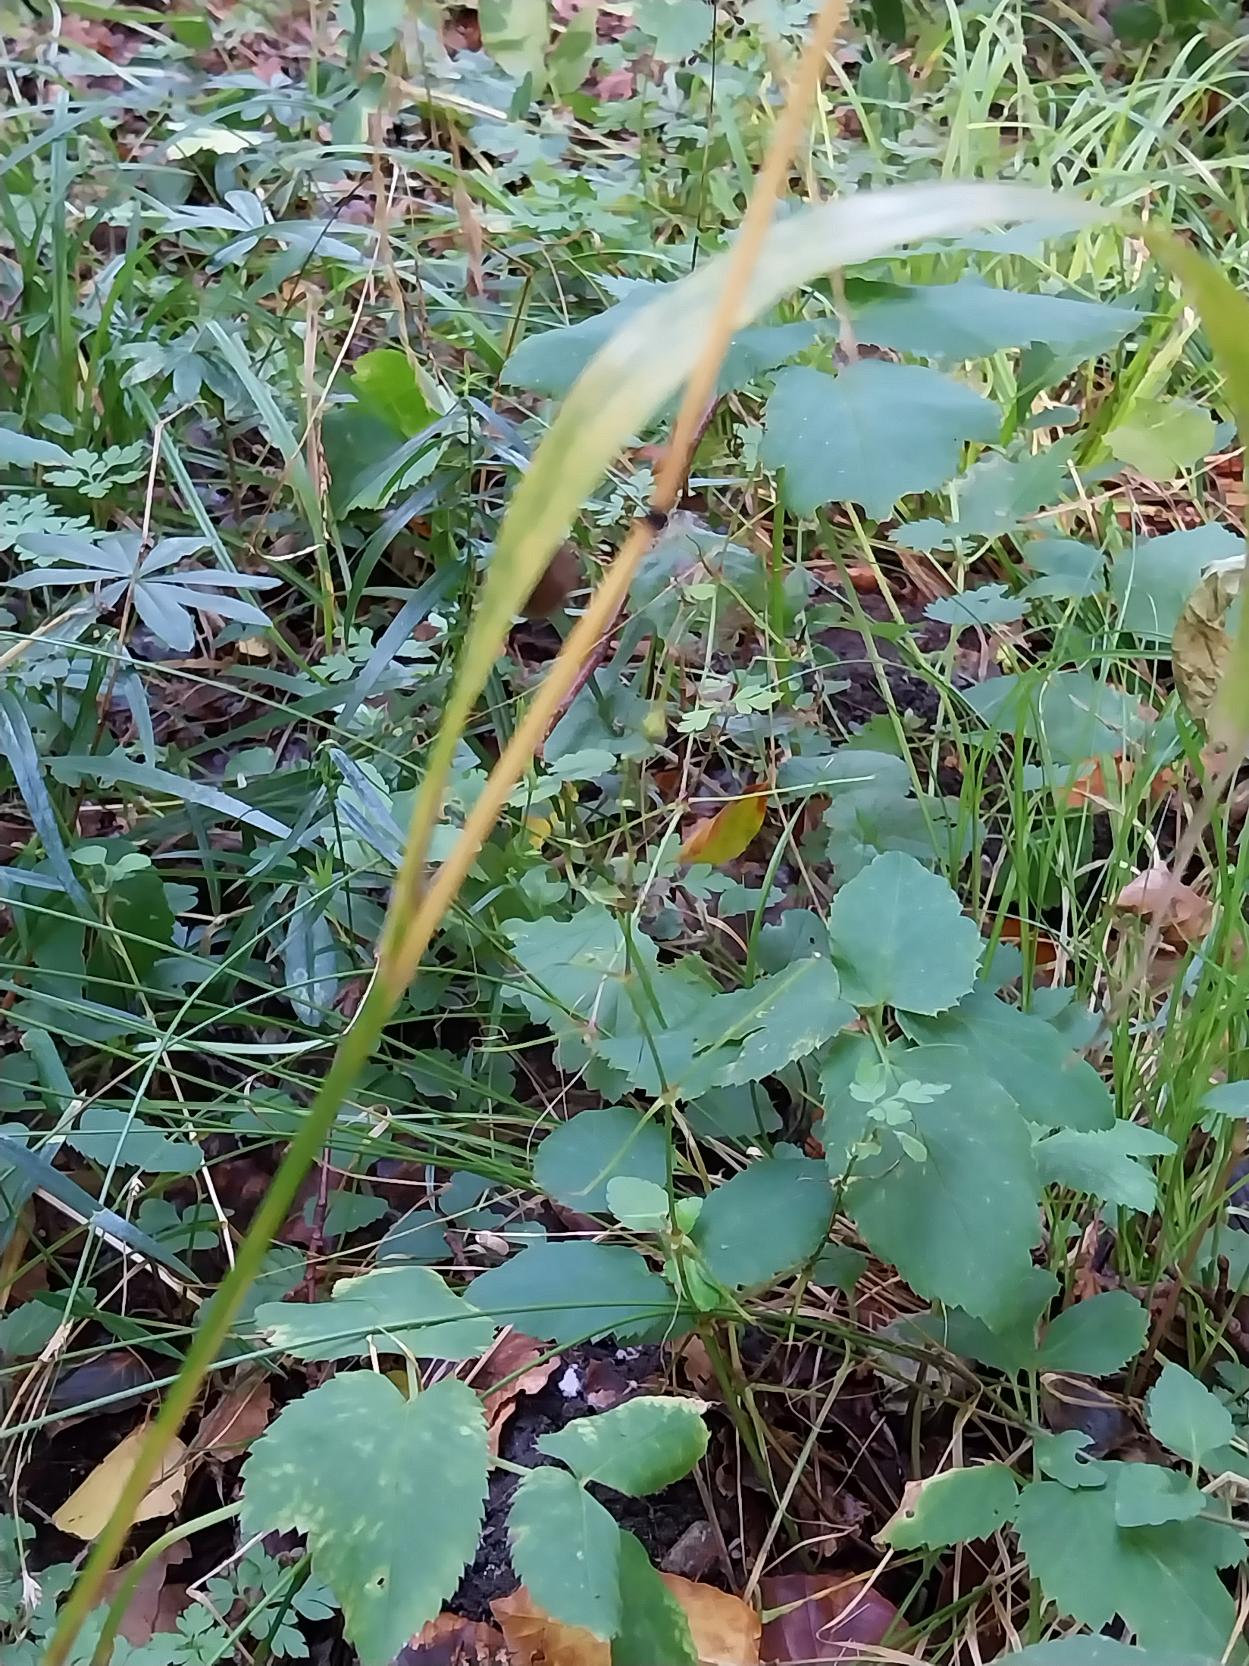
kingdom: Plantae
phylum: Tracheophyta
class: Liliopsida
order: Poales
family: Poaceae
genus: Lolium
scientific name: Lolium giganteum
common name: Kæmpe-svingel
